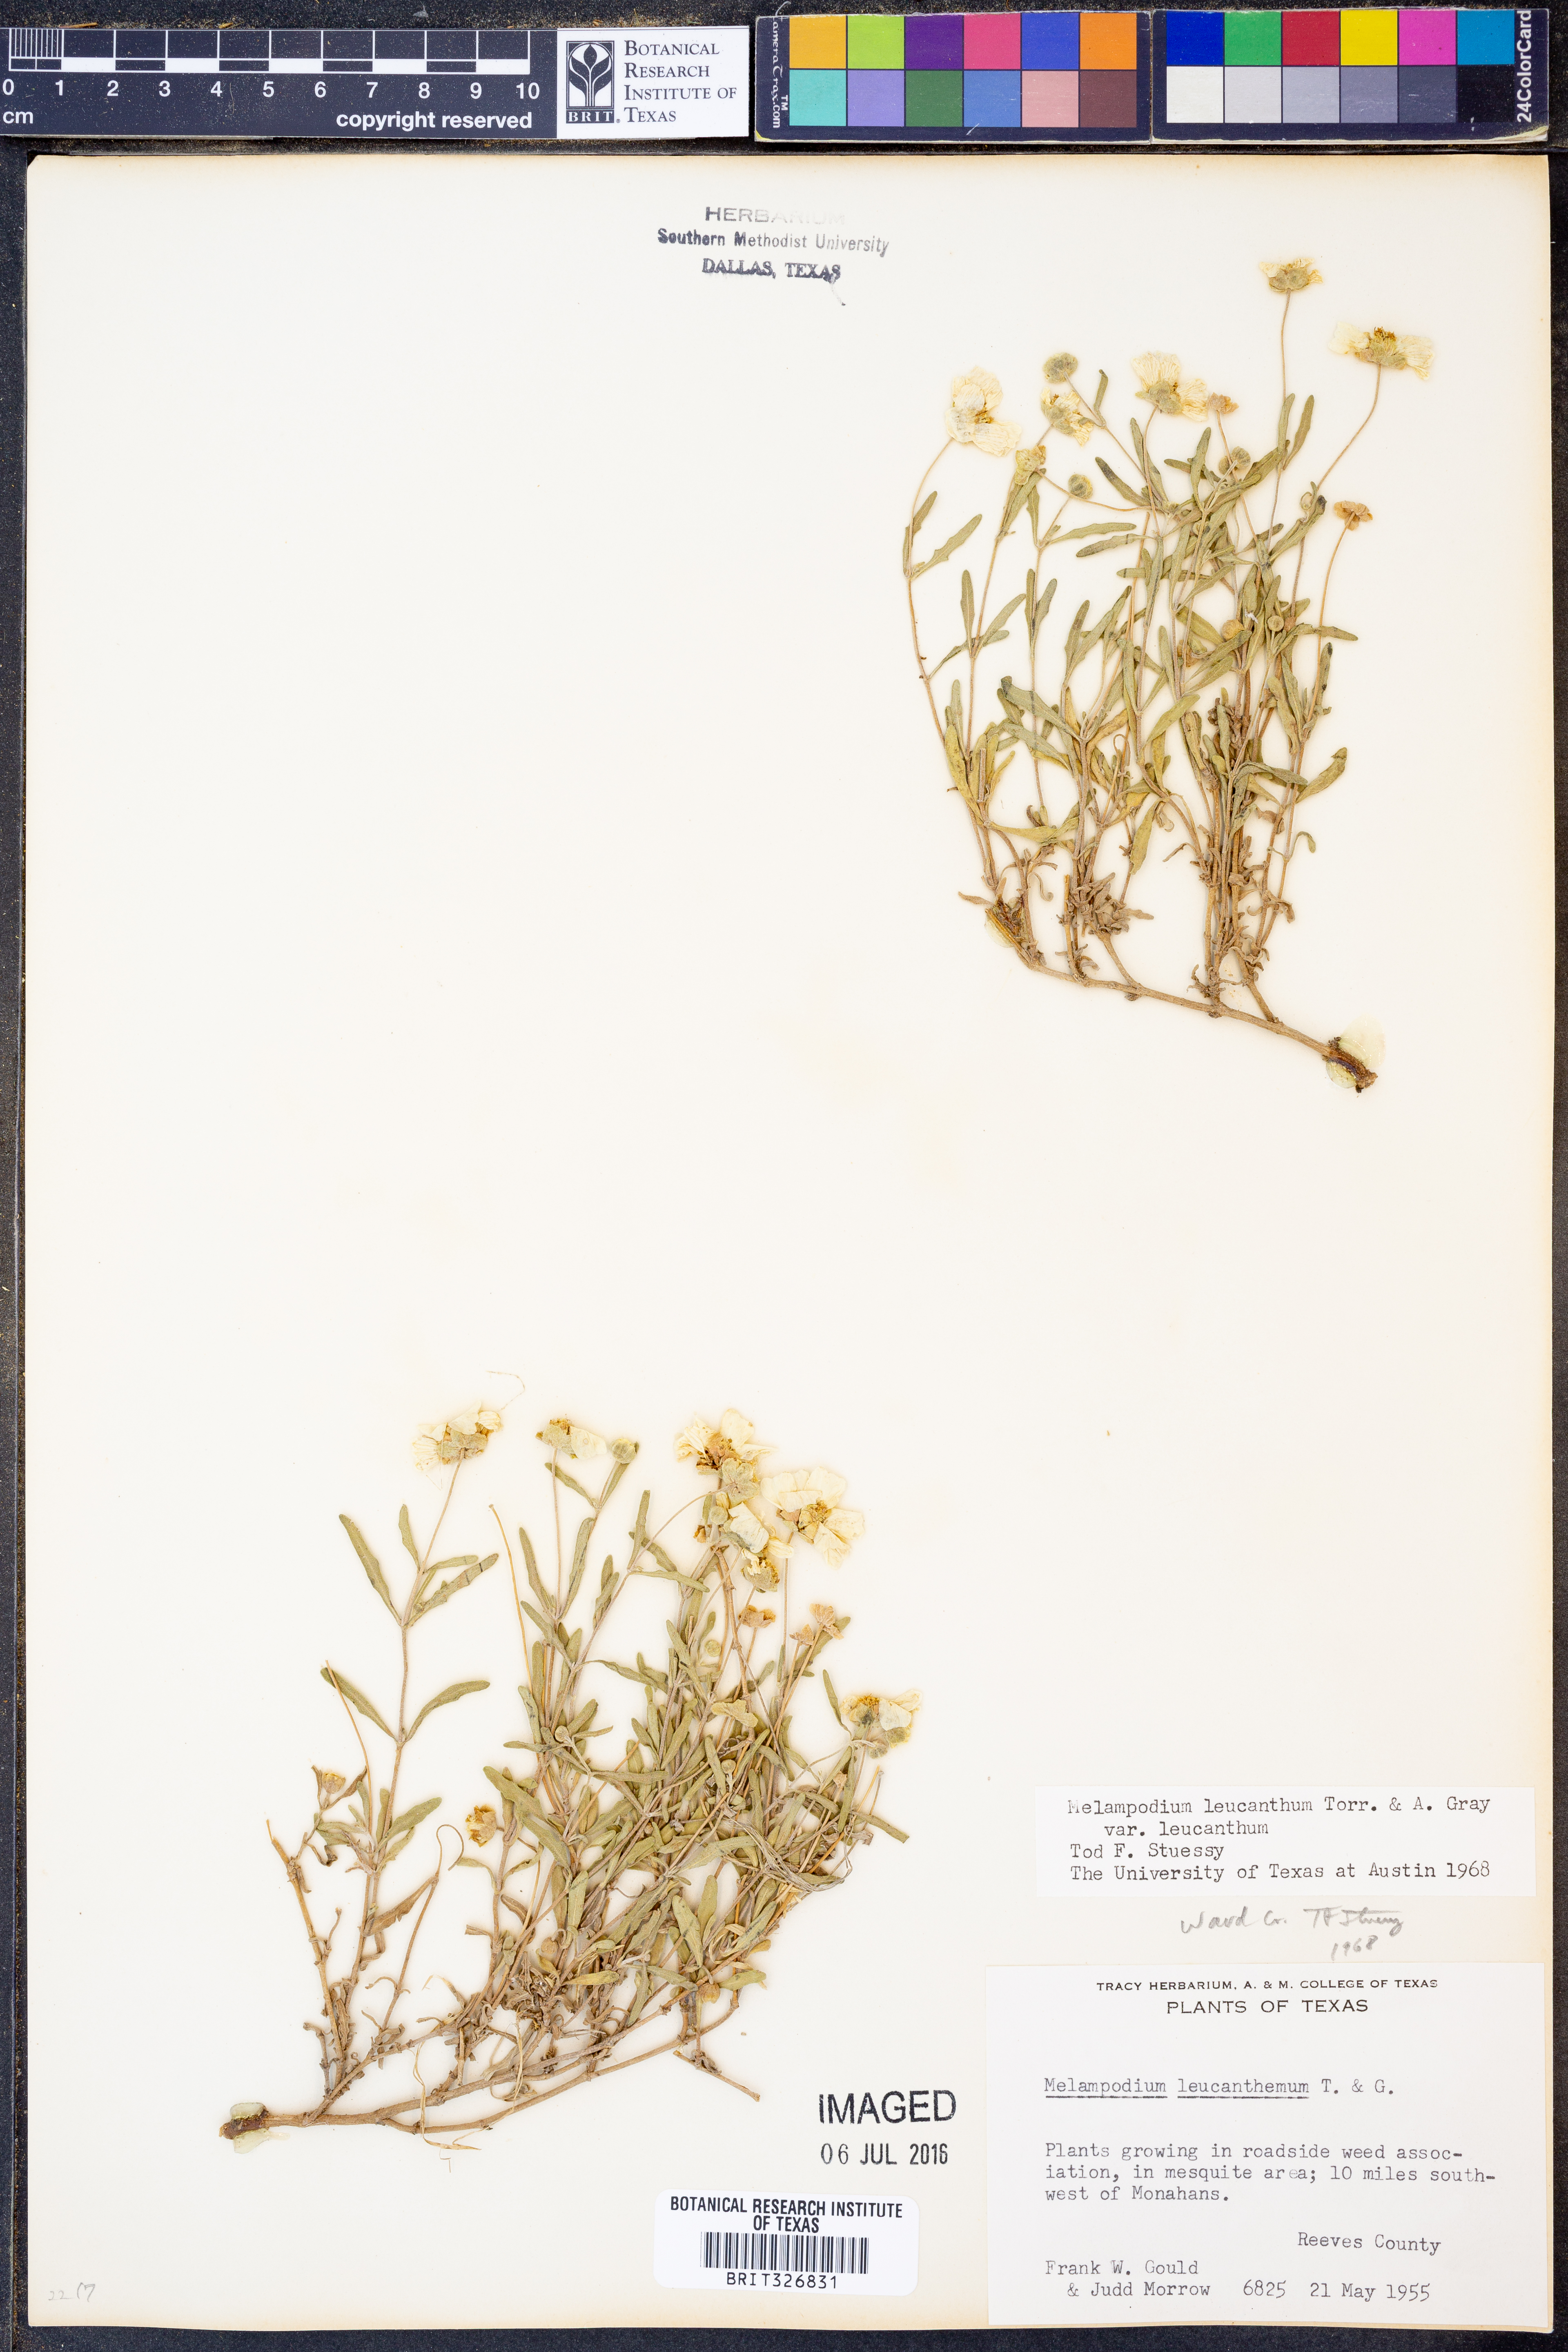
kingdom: Plantae
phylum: Tracheophyta
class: Magnoliopsida
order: Asterales
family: Asteraceae
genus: Melampodium
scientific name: Melampodium leucanthum
